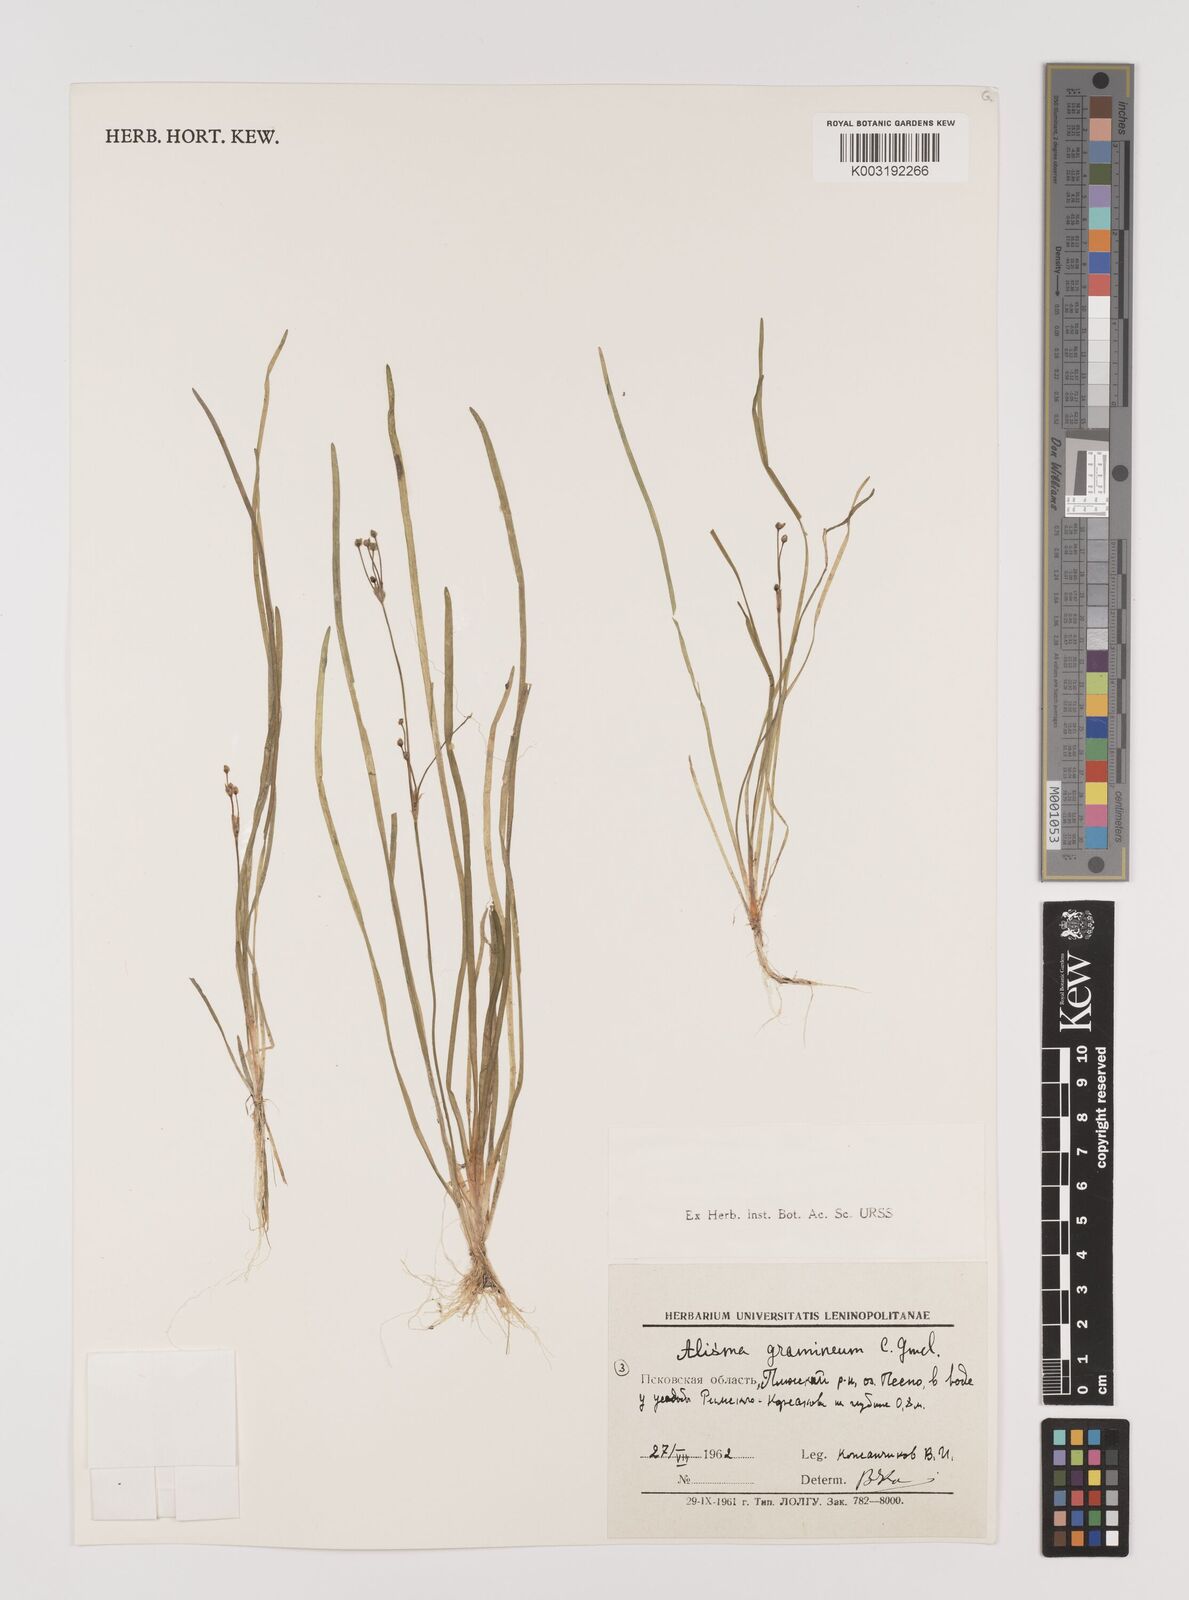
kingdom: Plantae
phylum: Tracheophyta
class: Liliopsida
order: Alismatales
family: Alismataceae
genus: Alisma
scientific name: Alisma gramineum
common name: Ribbon-leaved water-plantain
